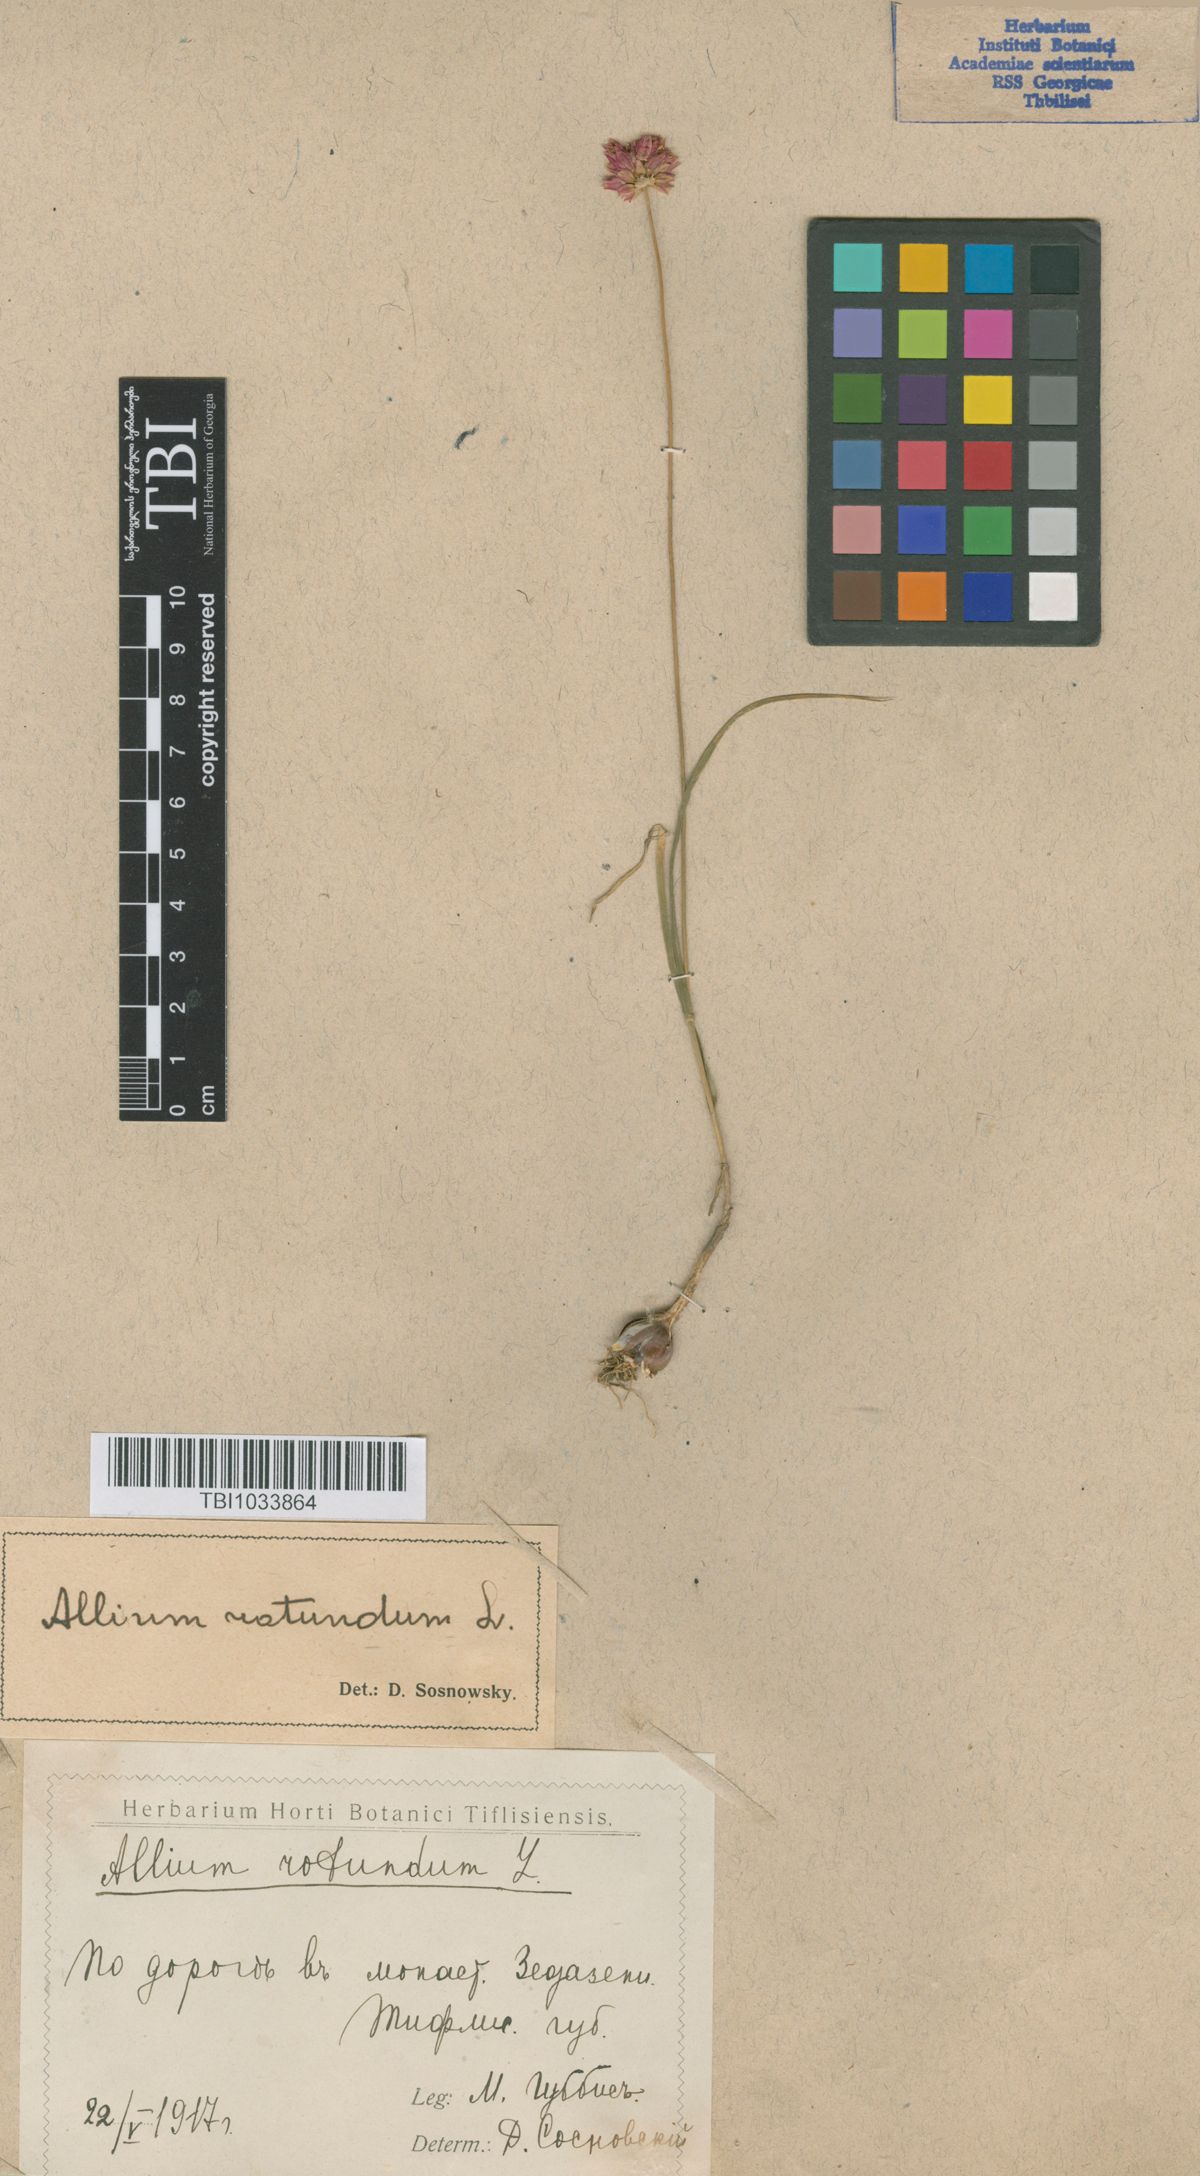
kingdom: Plantae
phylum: Tracheophyta
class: Liliopsida
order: Asparagales
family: Amaryllidaceae
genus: Allium
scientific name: Allium rotundum
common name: Sand leek
